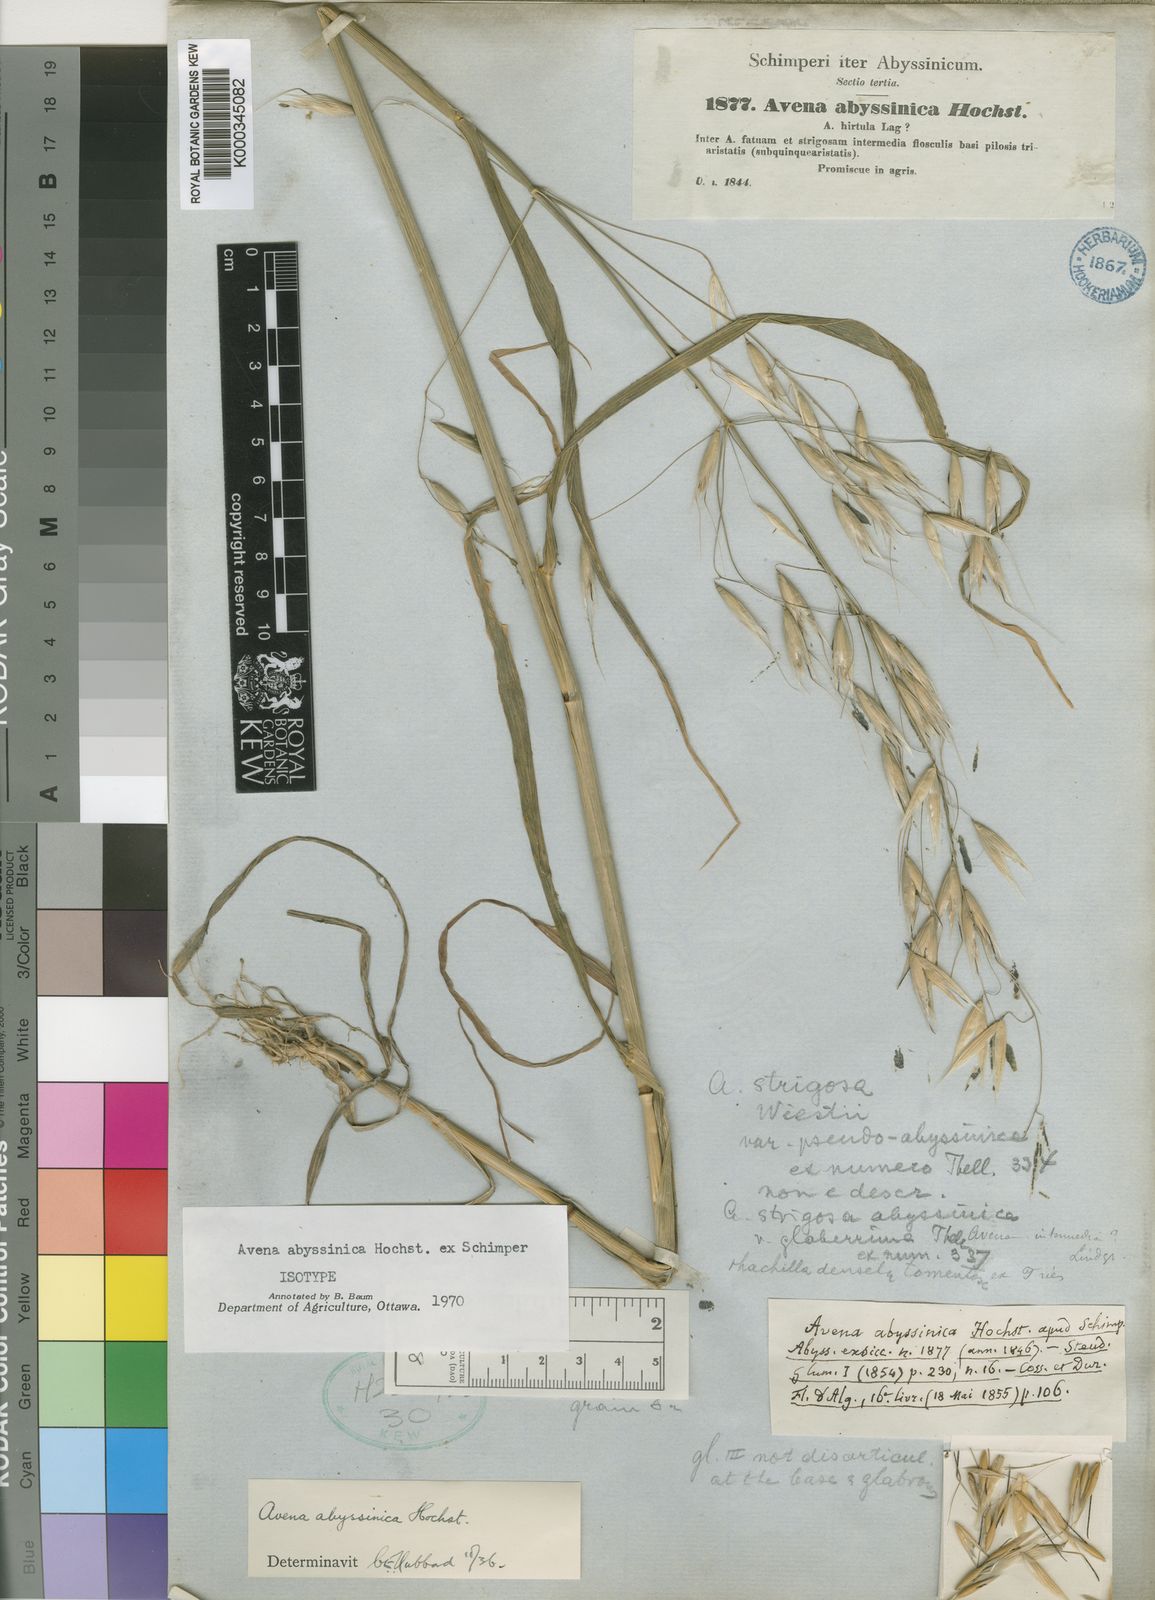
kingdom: Plantae
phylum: Tracheophyta
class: Liliopsida
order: Poales
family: Poaceae
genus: Avena
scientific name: Avena abyssinica
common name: Ethiopian oat
